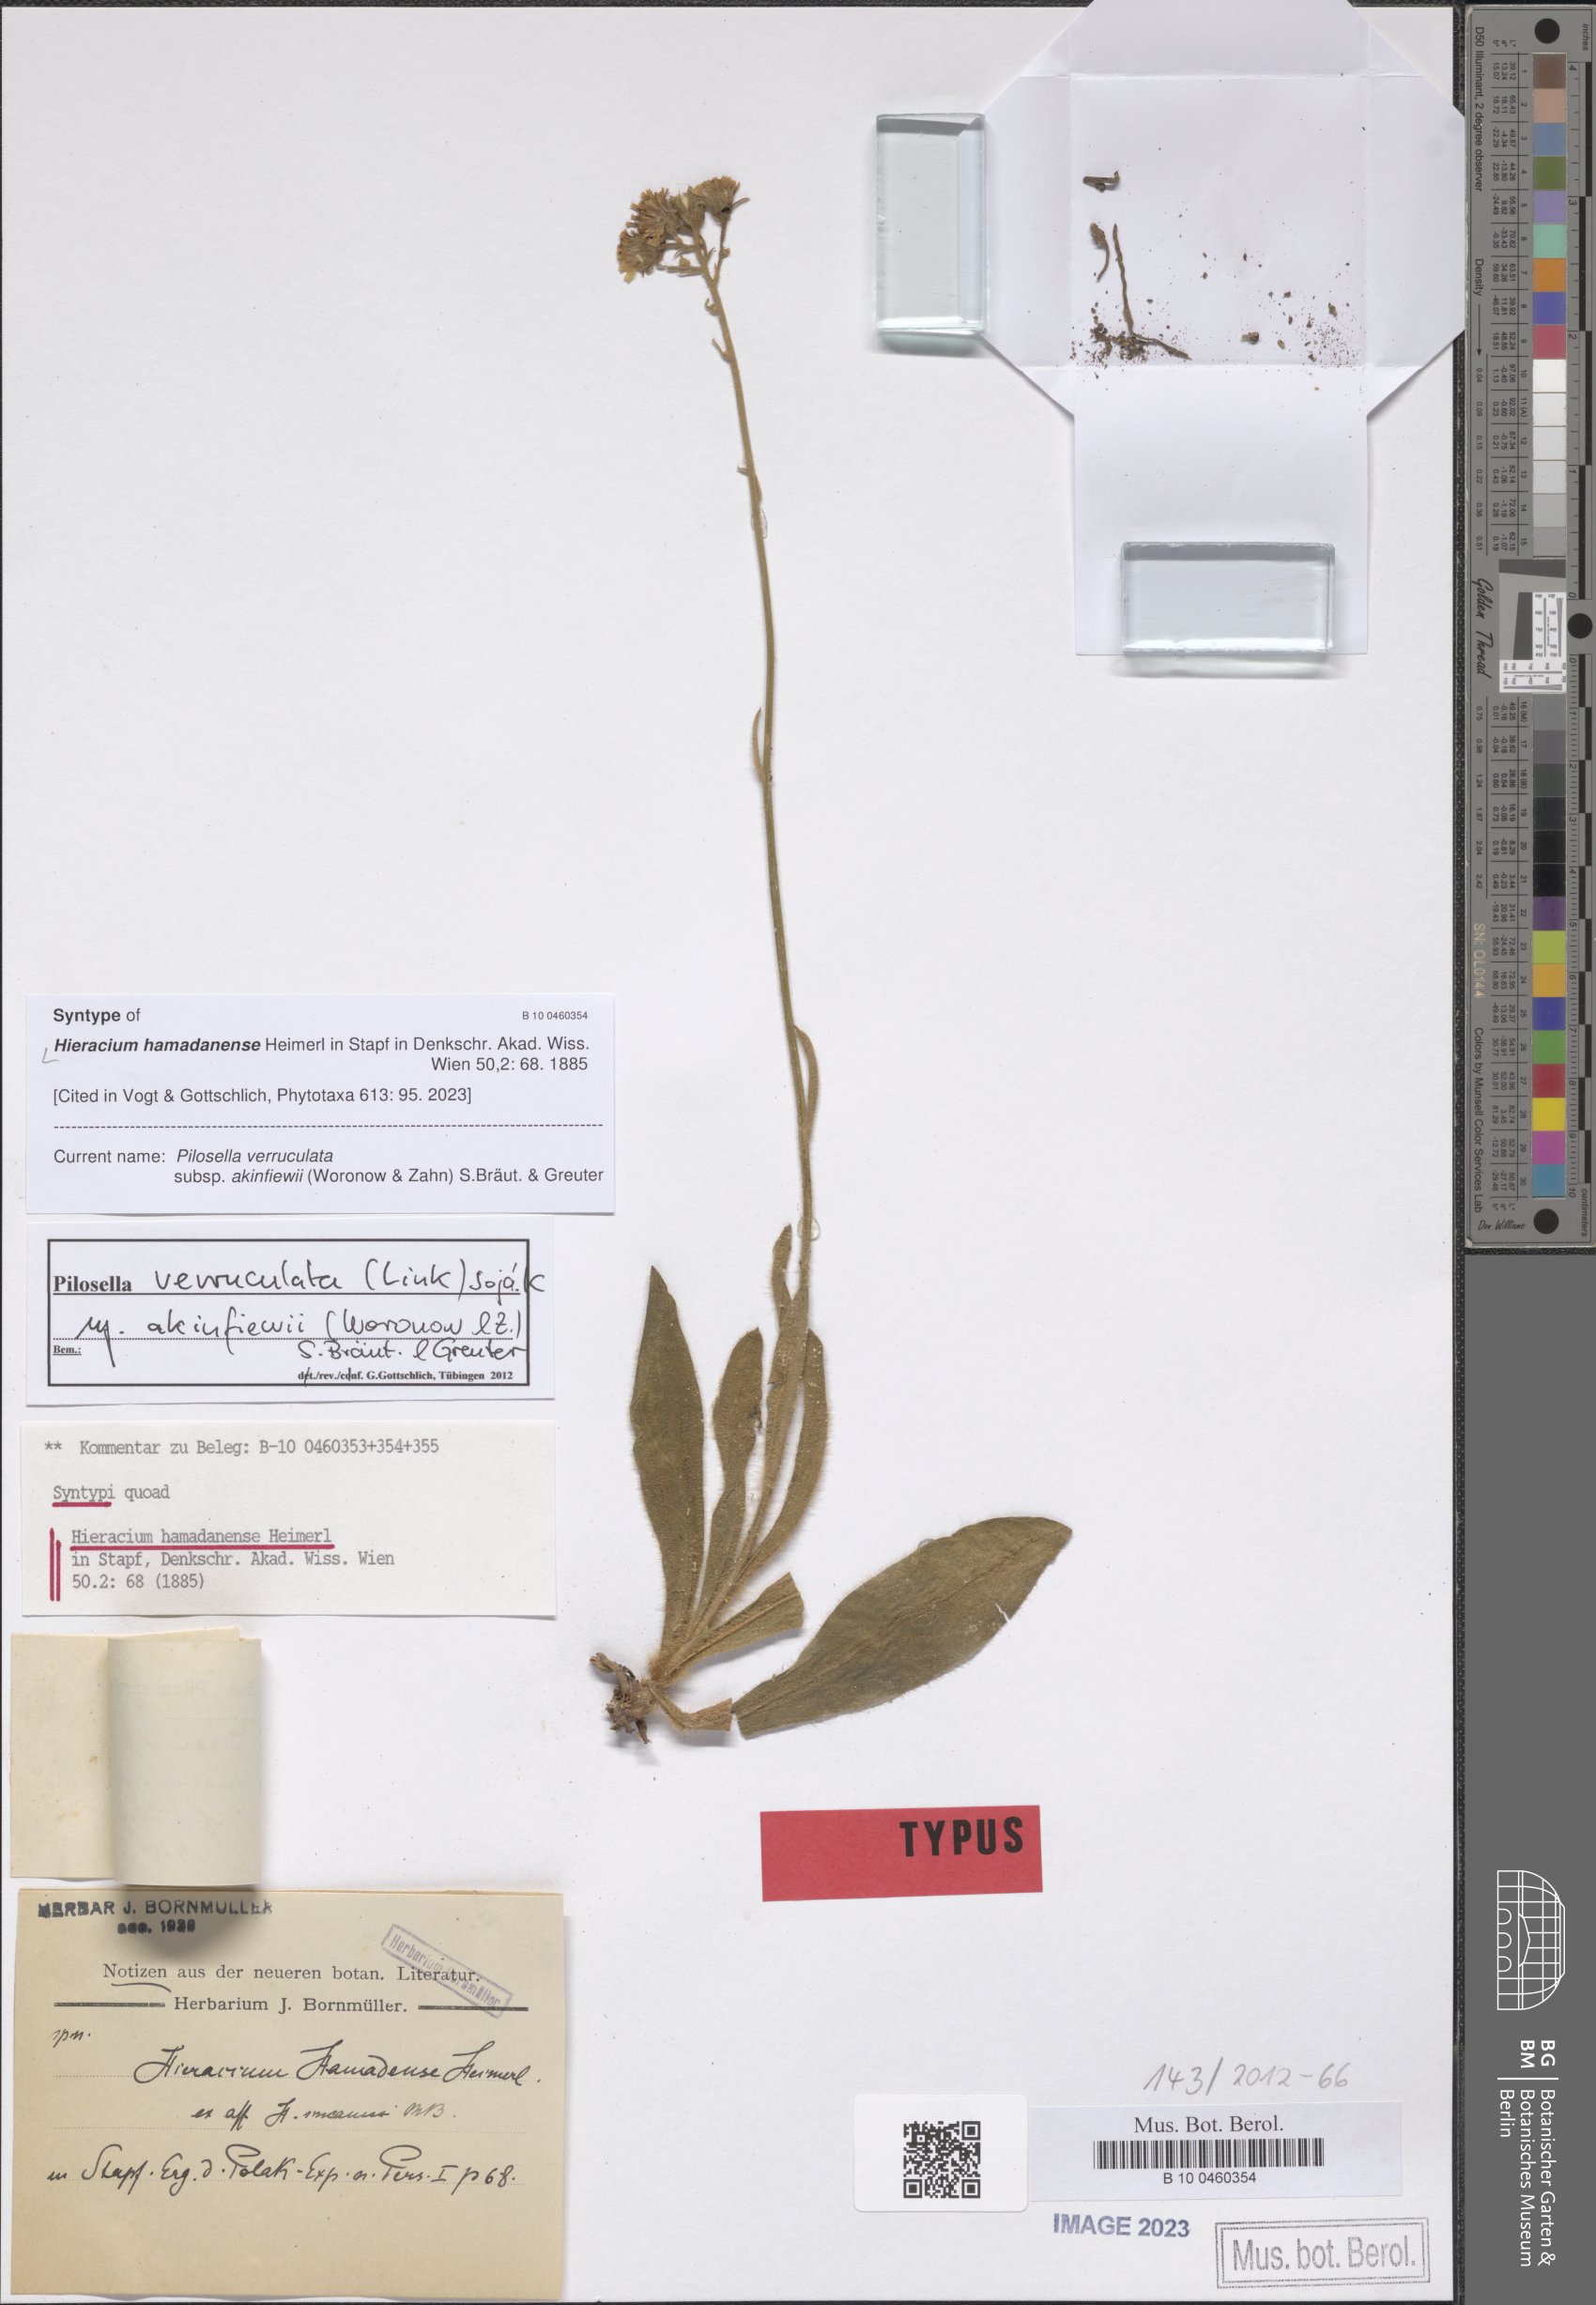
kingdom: Plantae
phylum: Tracheophyta
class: Magnoliopsida
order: Asterales
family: Asteraceae
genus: Pilosella
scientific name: Pilosella verruculata
